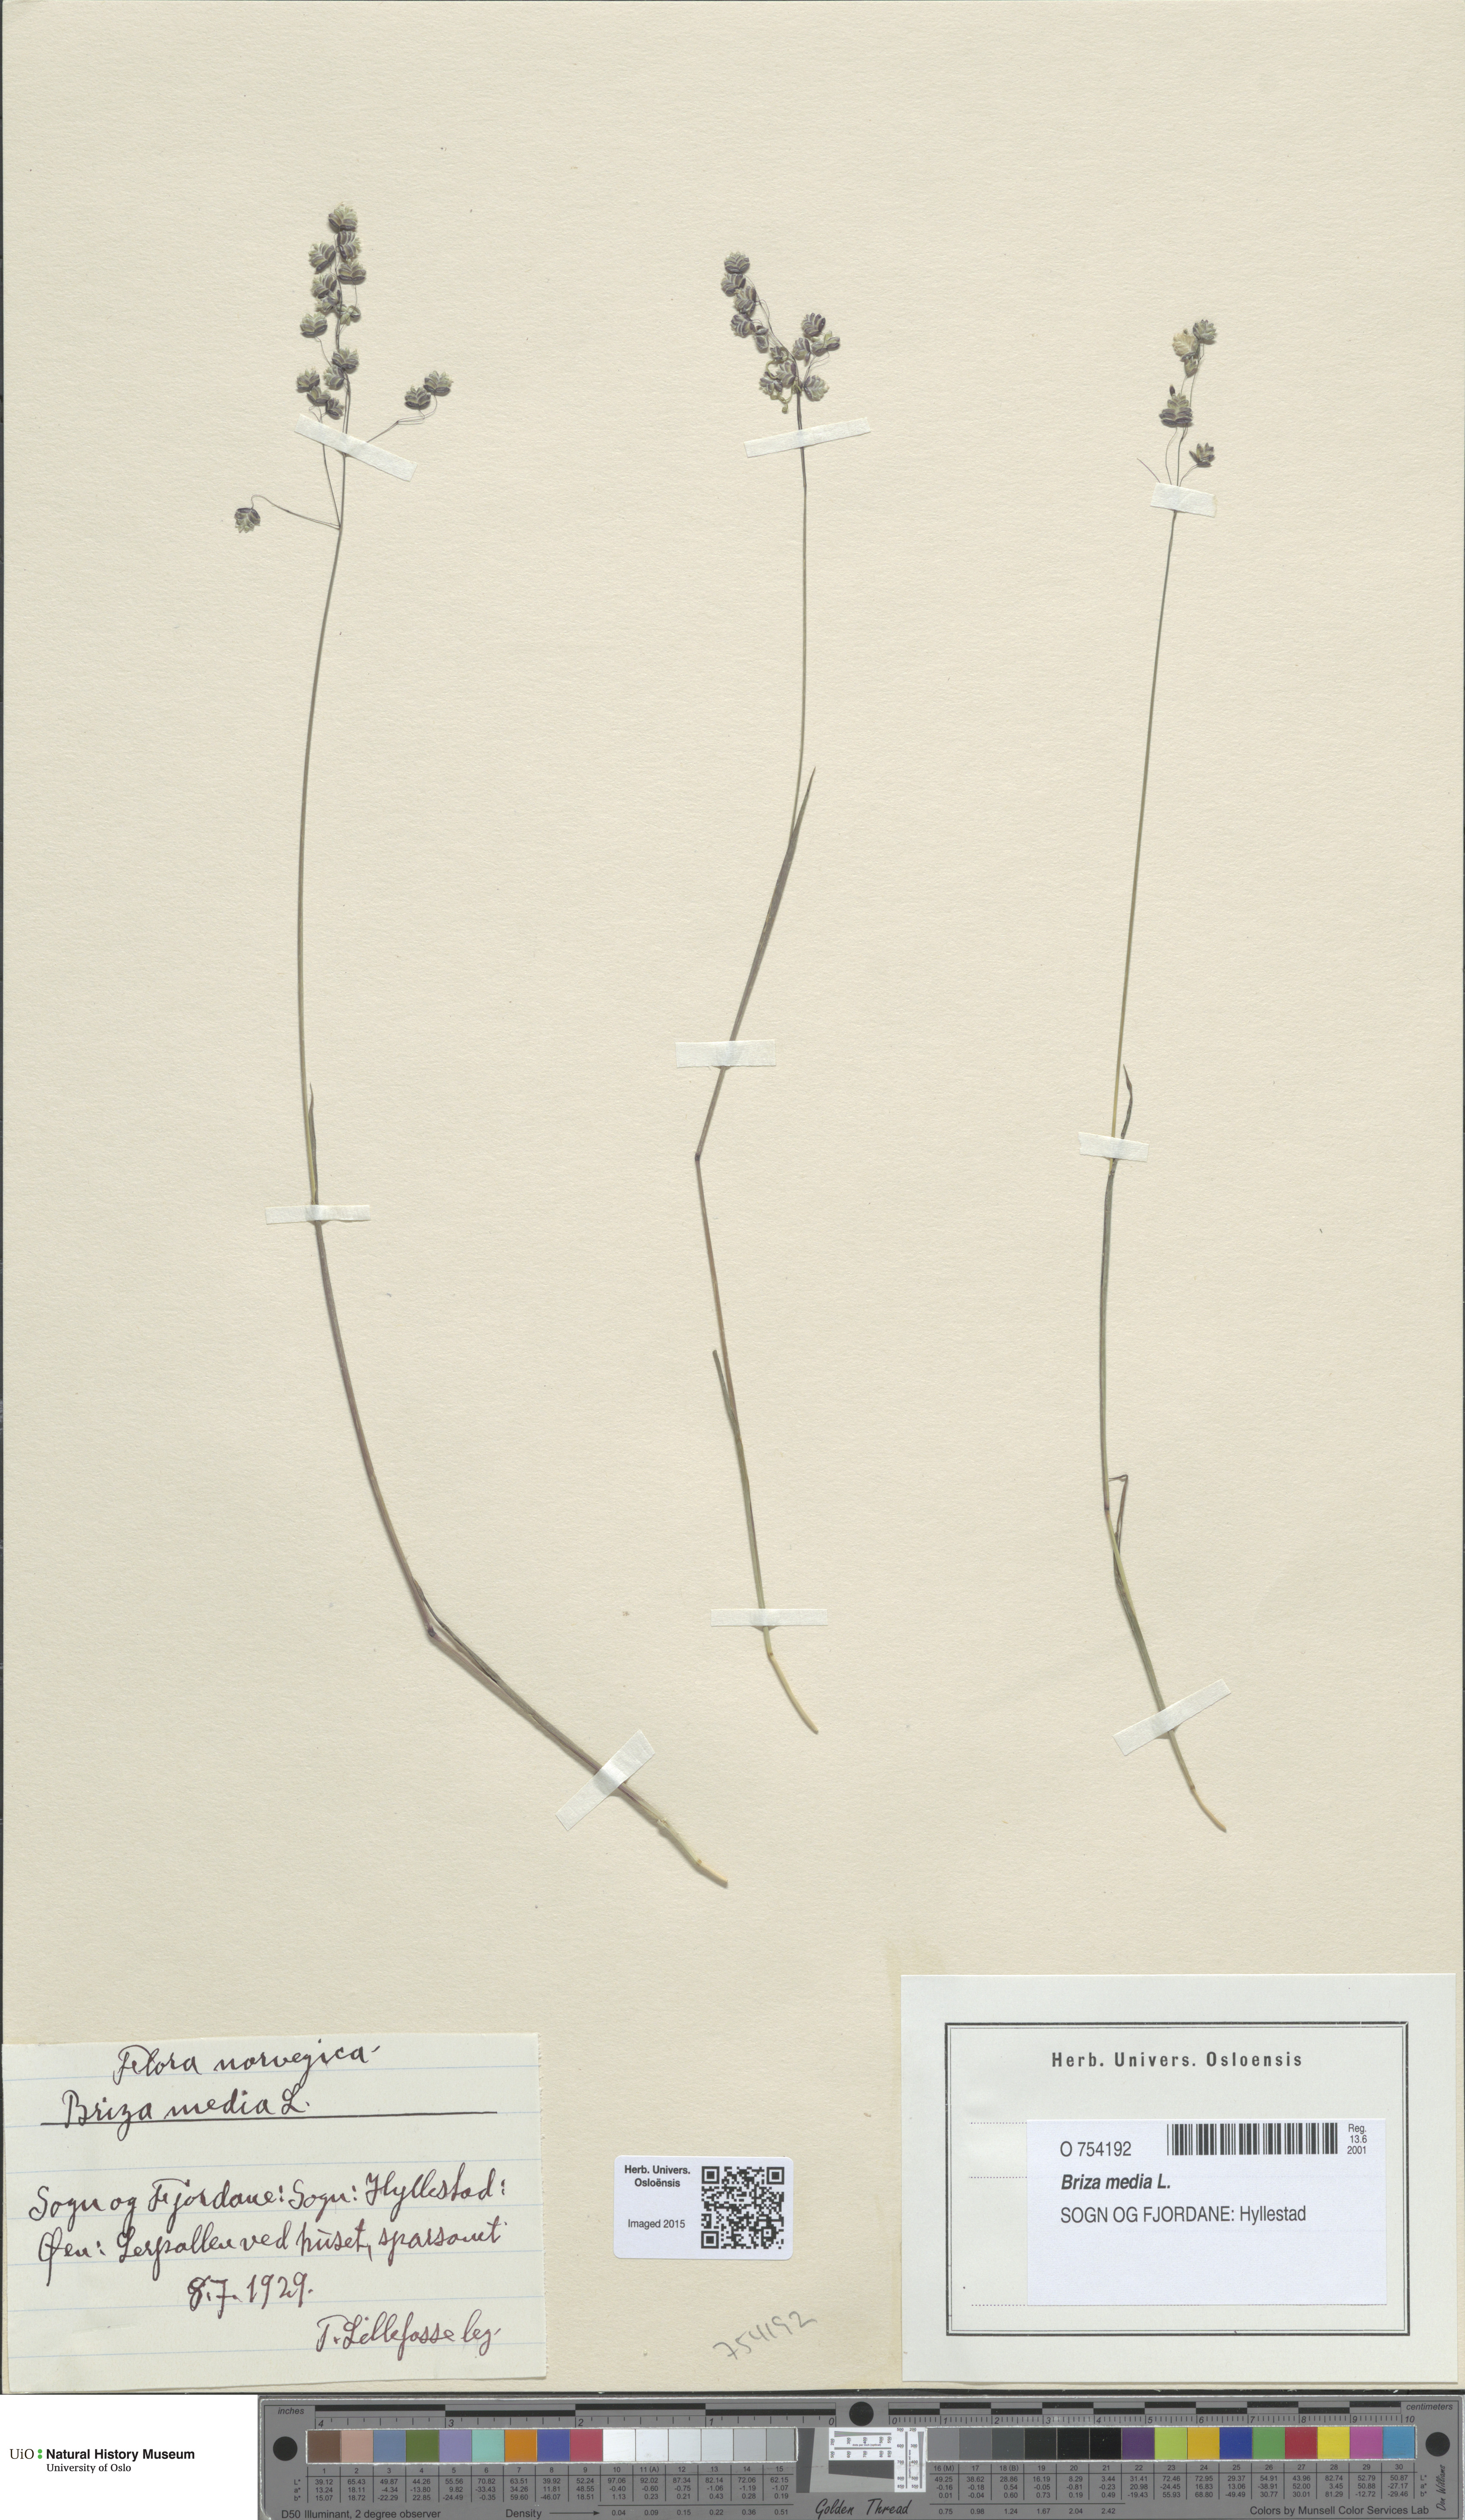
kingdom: Plantae
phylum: Tracheophyta
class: Liliopsida
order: Poales
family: Poaceae
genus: Briza
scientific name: Briza media
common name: Quaking grass
